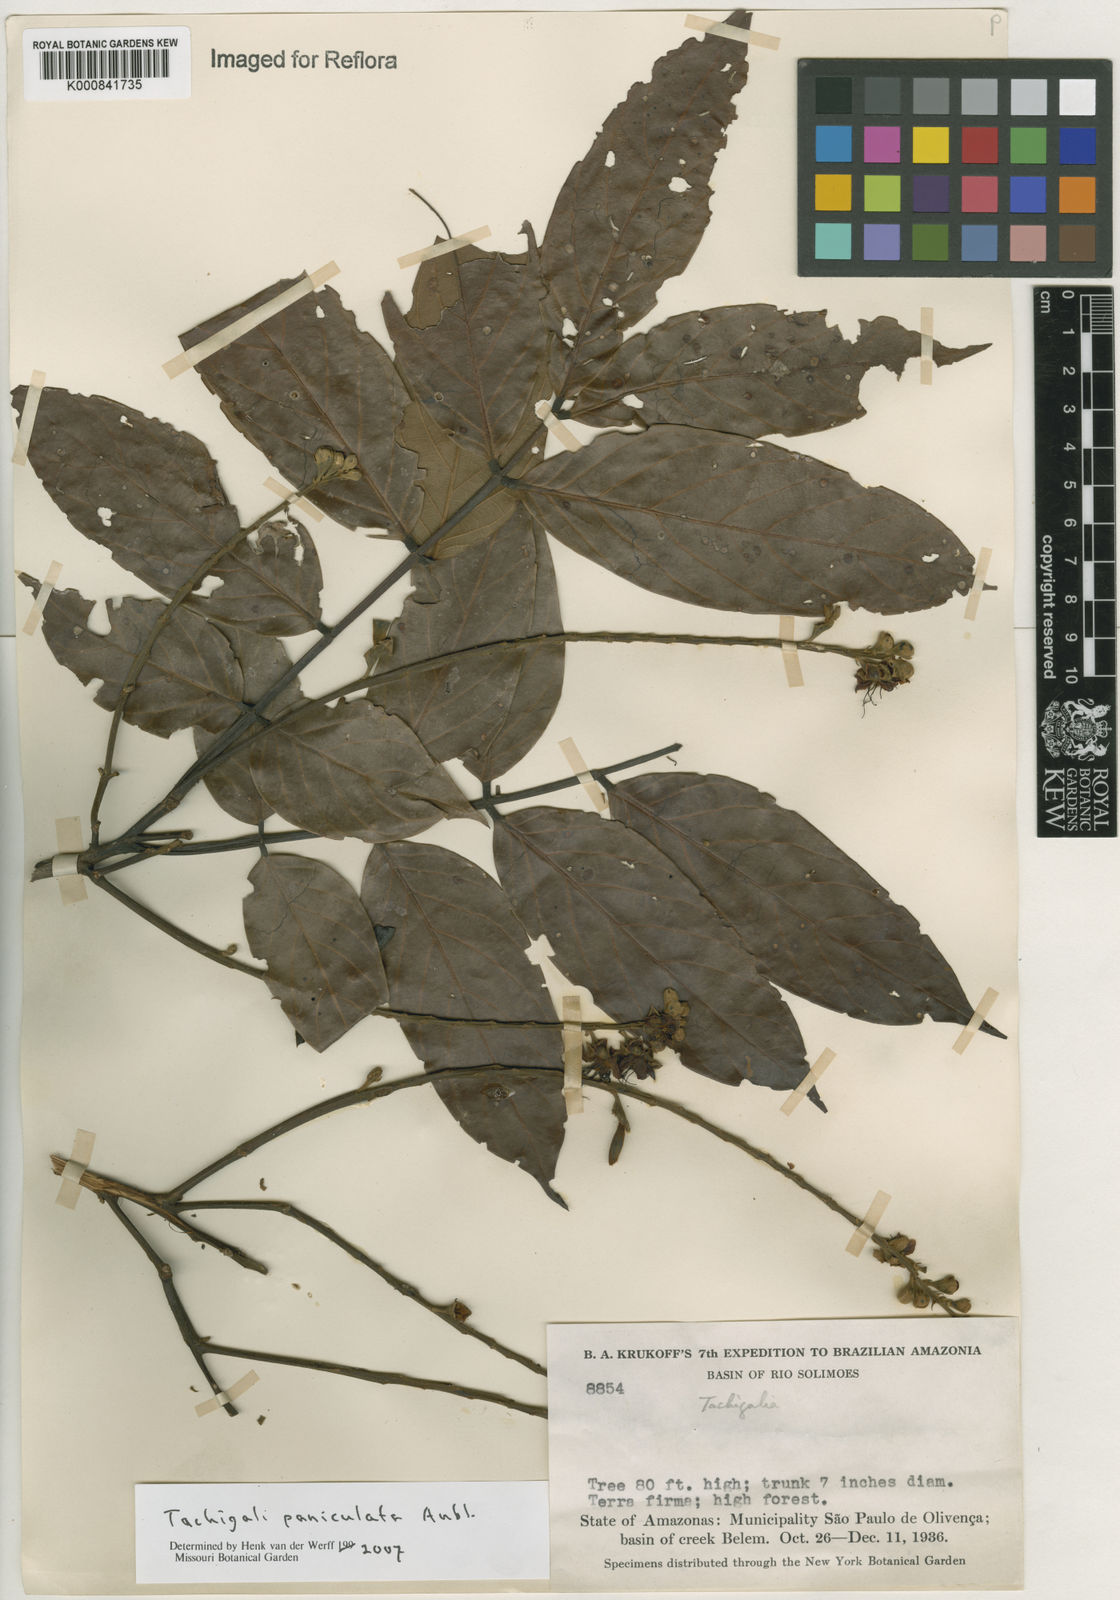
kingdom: Plantae
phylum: Tracheophyta
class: Magnoliopsida
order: Fabales
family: Fabaceae
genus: Tachigali
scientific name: Tachigali paniculata
